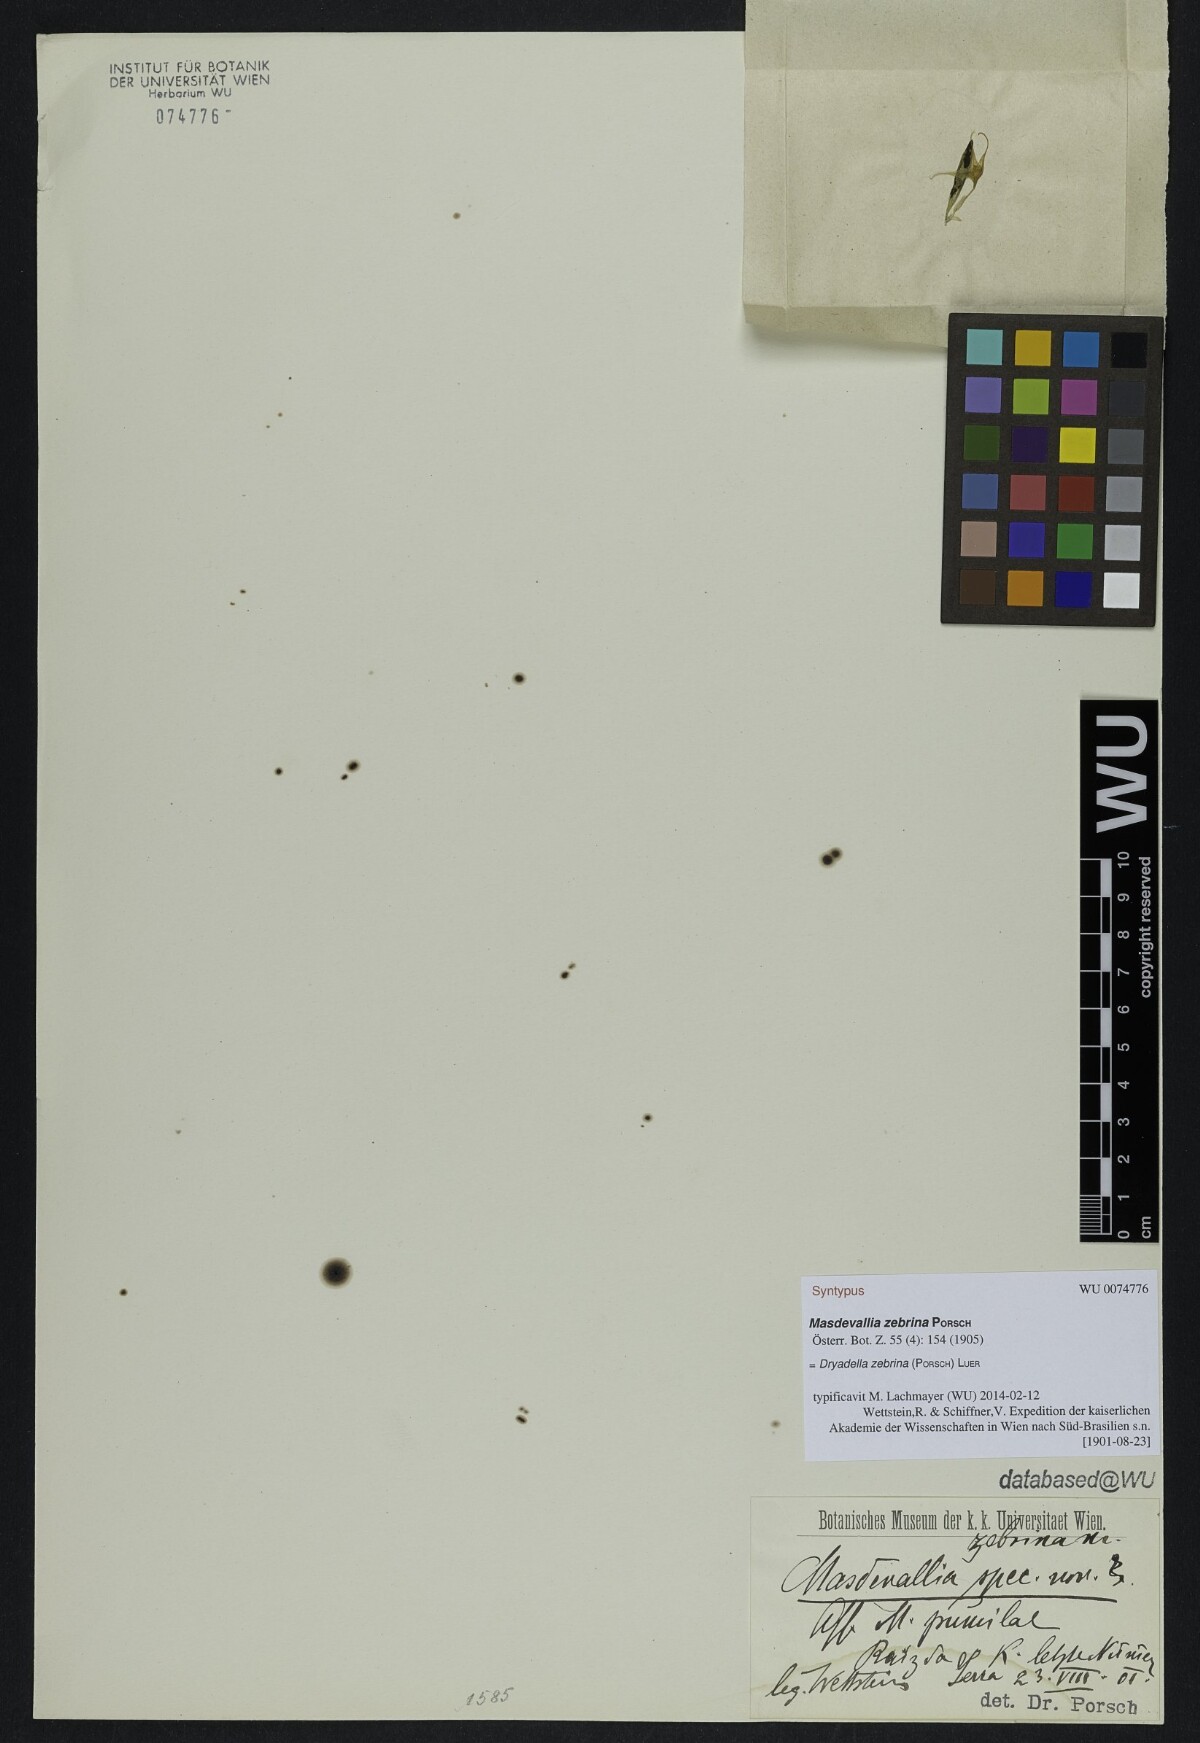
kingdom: Plantae
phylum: Tracheophyta
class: Liliopsida
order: Asparagales
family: Orchidaceae
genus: Dryadella
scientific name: Dryadella zebrina
